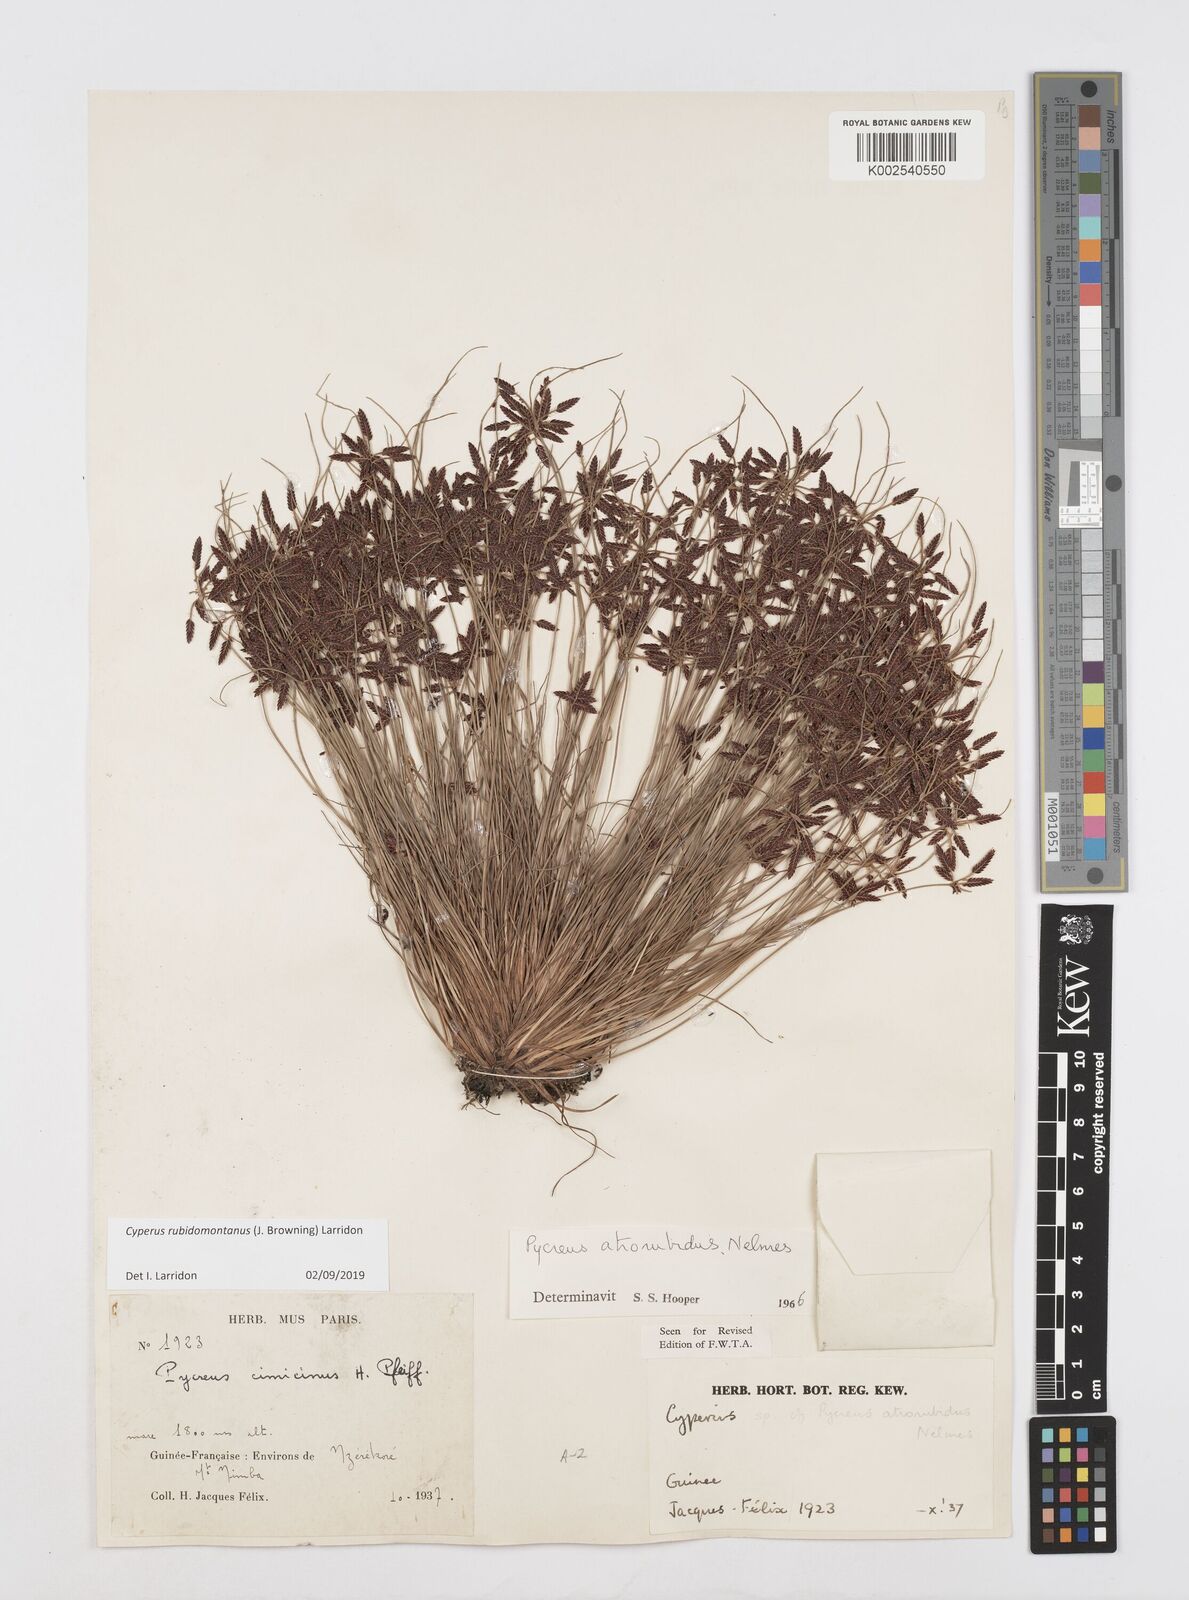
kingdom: Plantae
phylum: Tracheophyta
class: Liliopsida
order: Poales
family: Cyperaceae
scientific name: Cyperaceae
